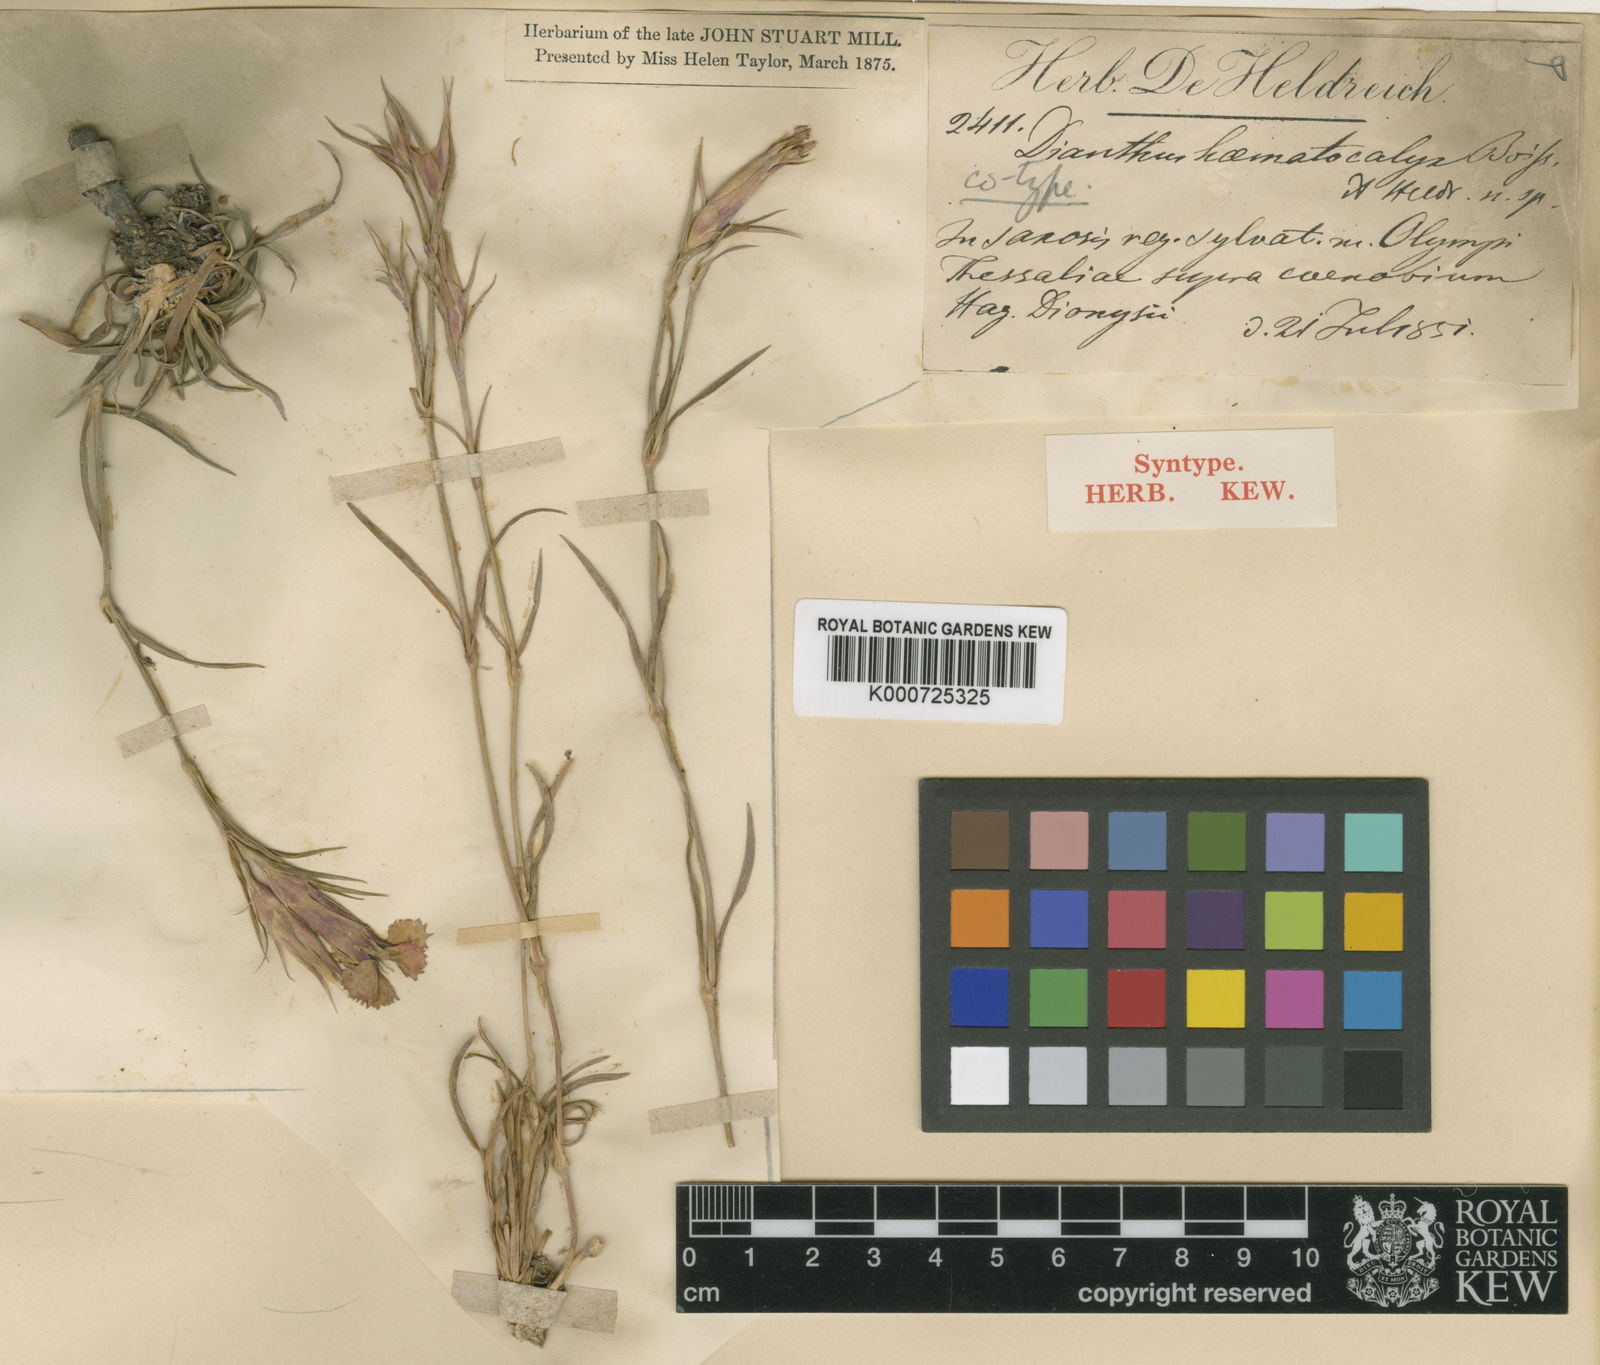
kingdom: Plantae
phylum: Tracheophyta
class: Magnoliopsida
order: Caryophyllales
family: Caryophyllaceae
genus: Dianthus
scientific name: Dianthus haematocalyx
